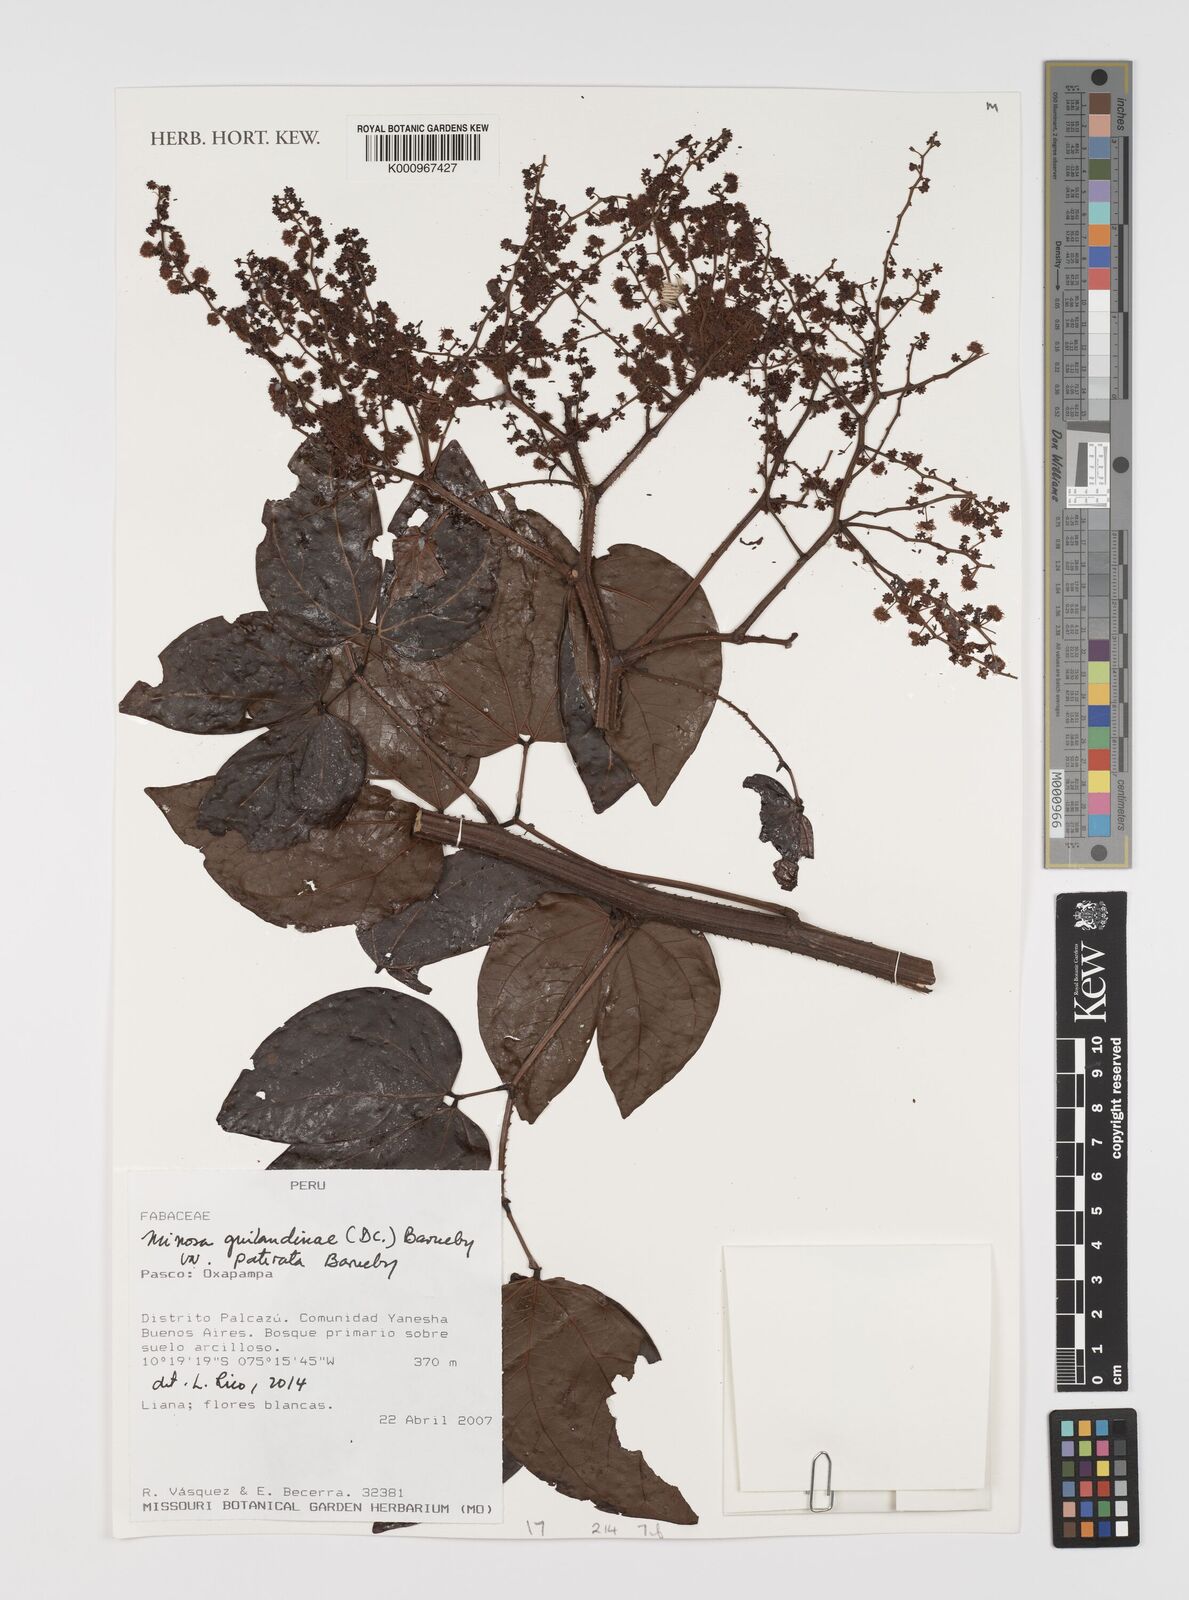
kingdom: Plantae
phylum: Tracheophyta
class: Magnoliopsida
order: Fabales
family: Fabaceae
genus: Mimosa
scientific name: Mimosa guilandinae
